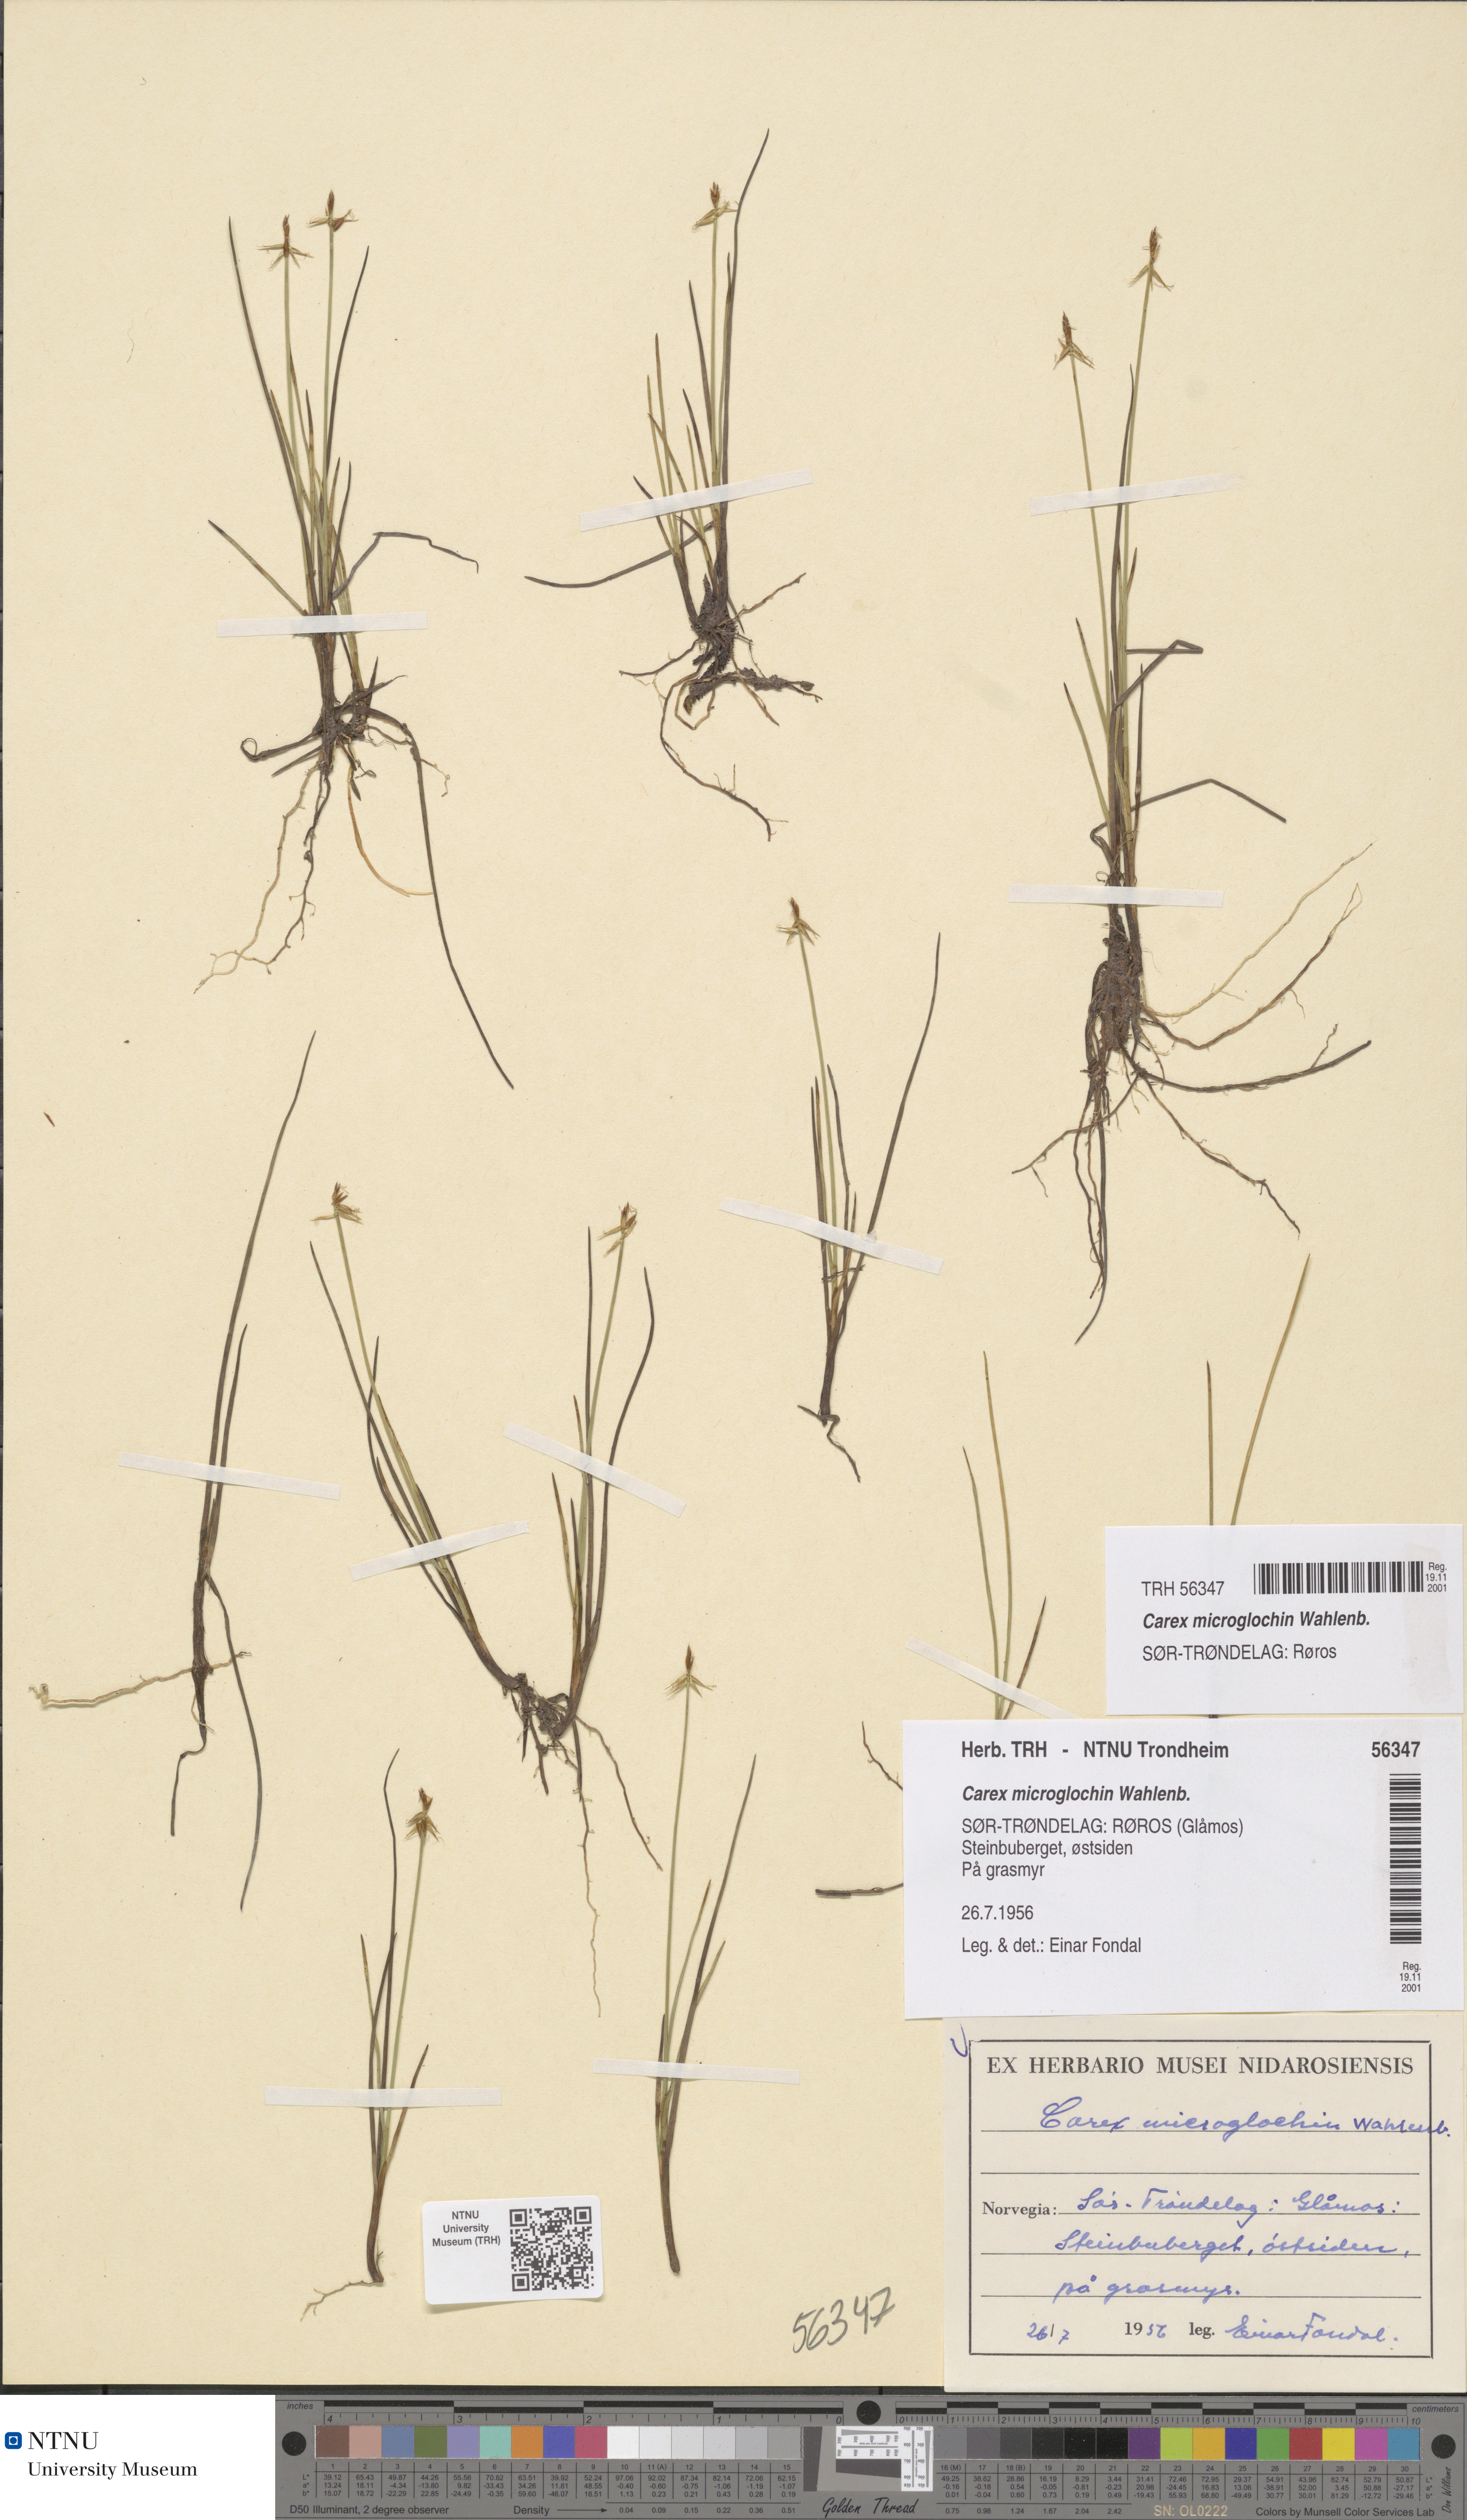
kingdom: Plantae
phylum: Tracheophyta
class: Liliopsida
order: Poales
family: Cyperaceae
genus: Carex
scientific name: Carex microglochin
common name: Bristle sedge
